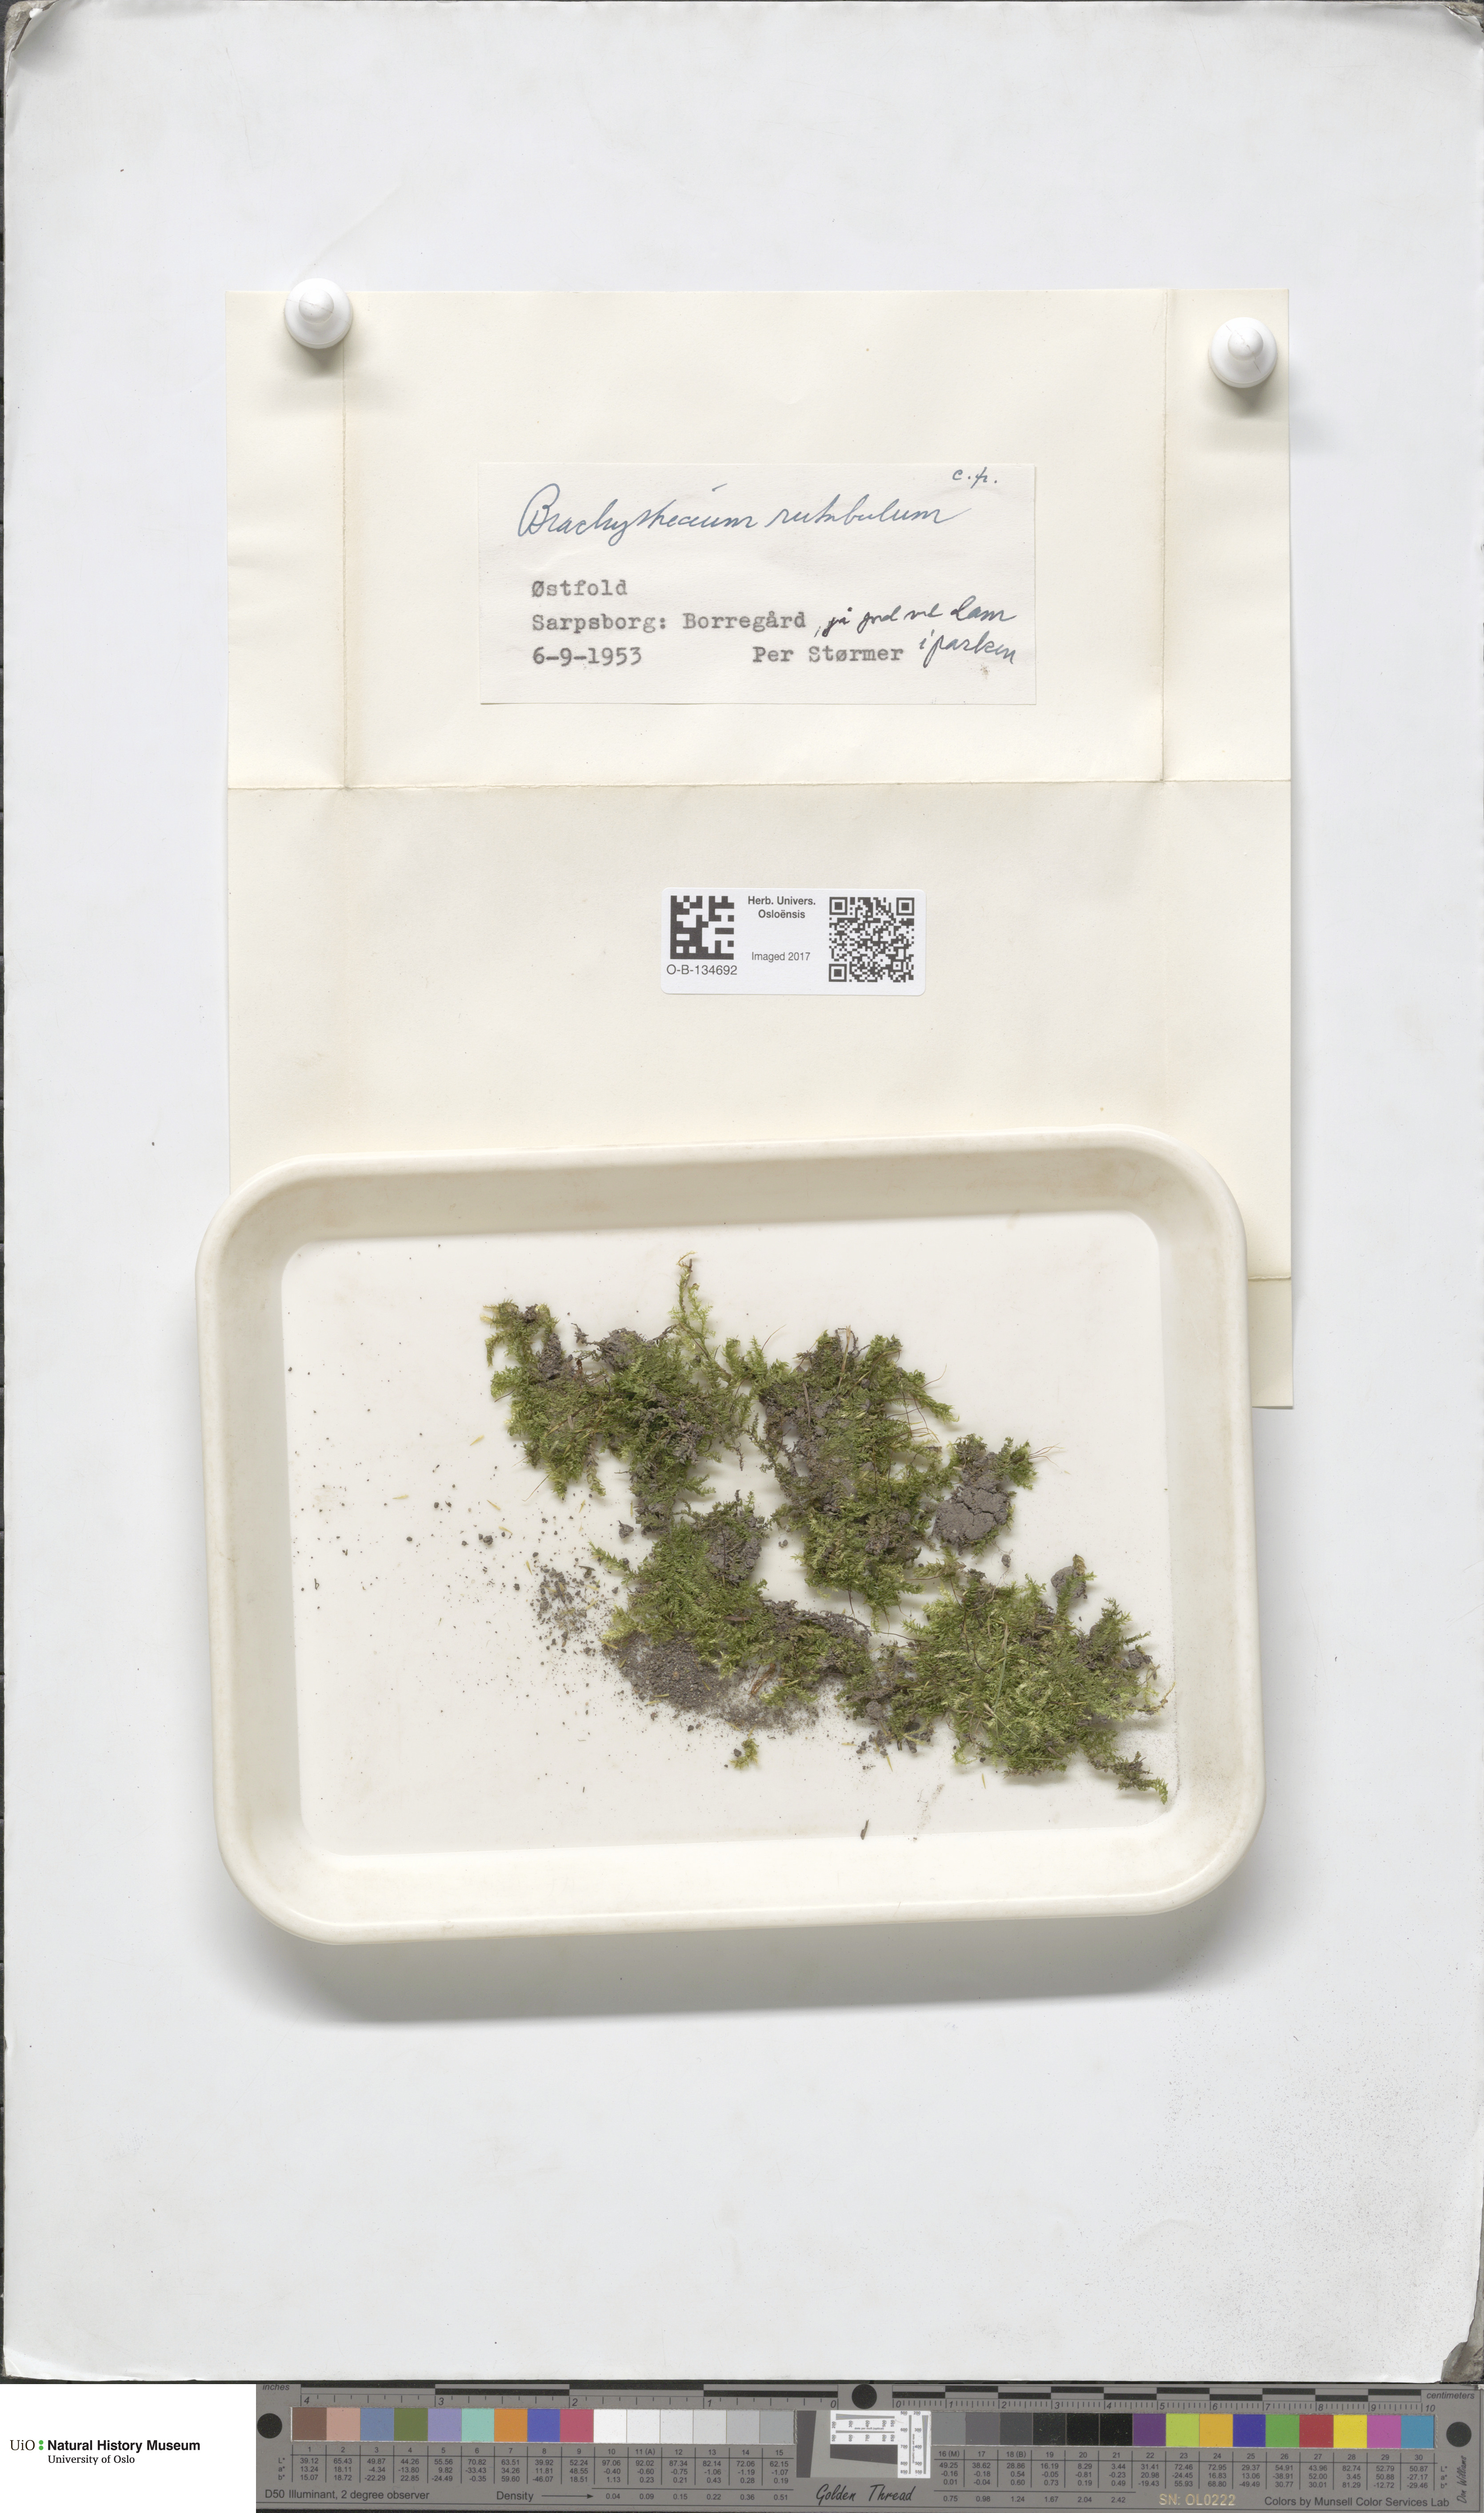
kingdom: Plantae
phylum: Bryophyta
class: Bryopsida
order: Hypnales
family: Brachytheciaceae
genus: Brachythecium
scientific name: Brachythecium rutabulum
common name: Rough-stalked feather-moss
